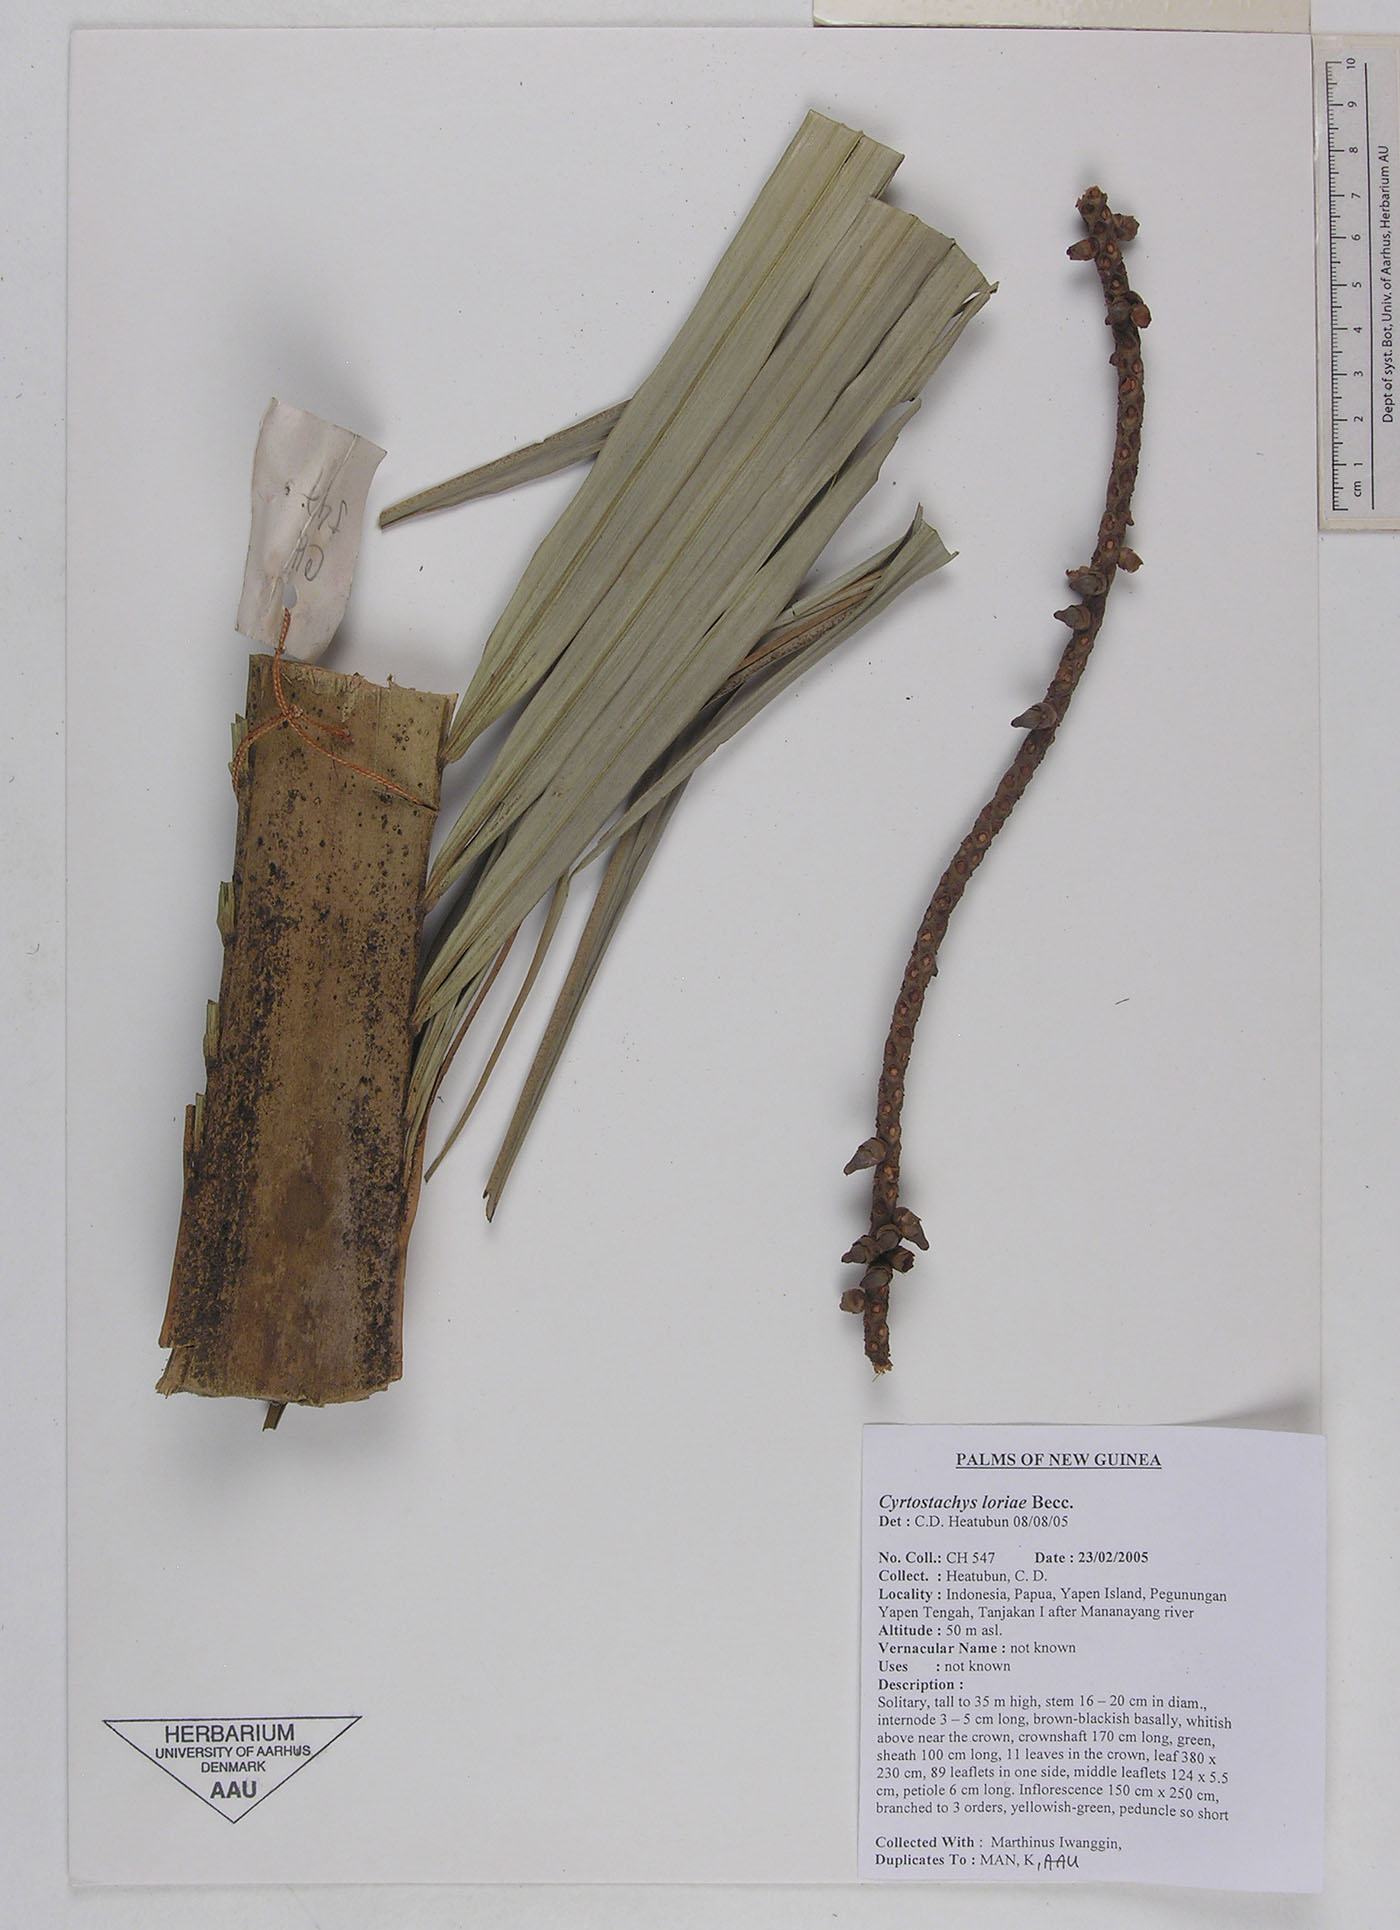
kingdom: Plantae
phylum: Tracheophyta
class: Liliopsida
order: Arecales
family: Arecaceae
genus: Cyrtostachys
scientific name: Cyrtostachys loriae
